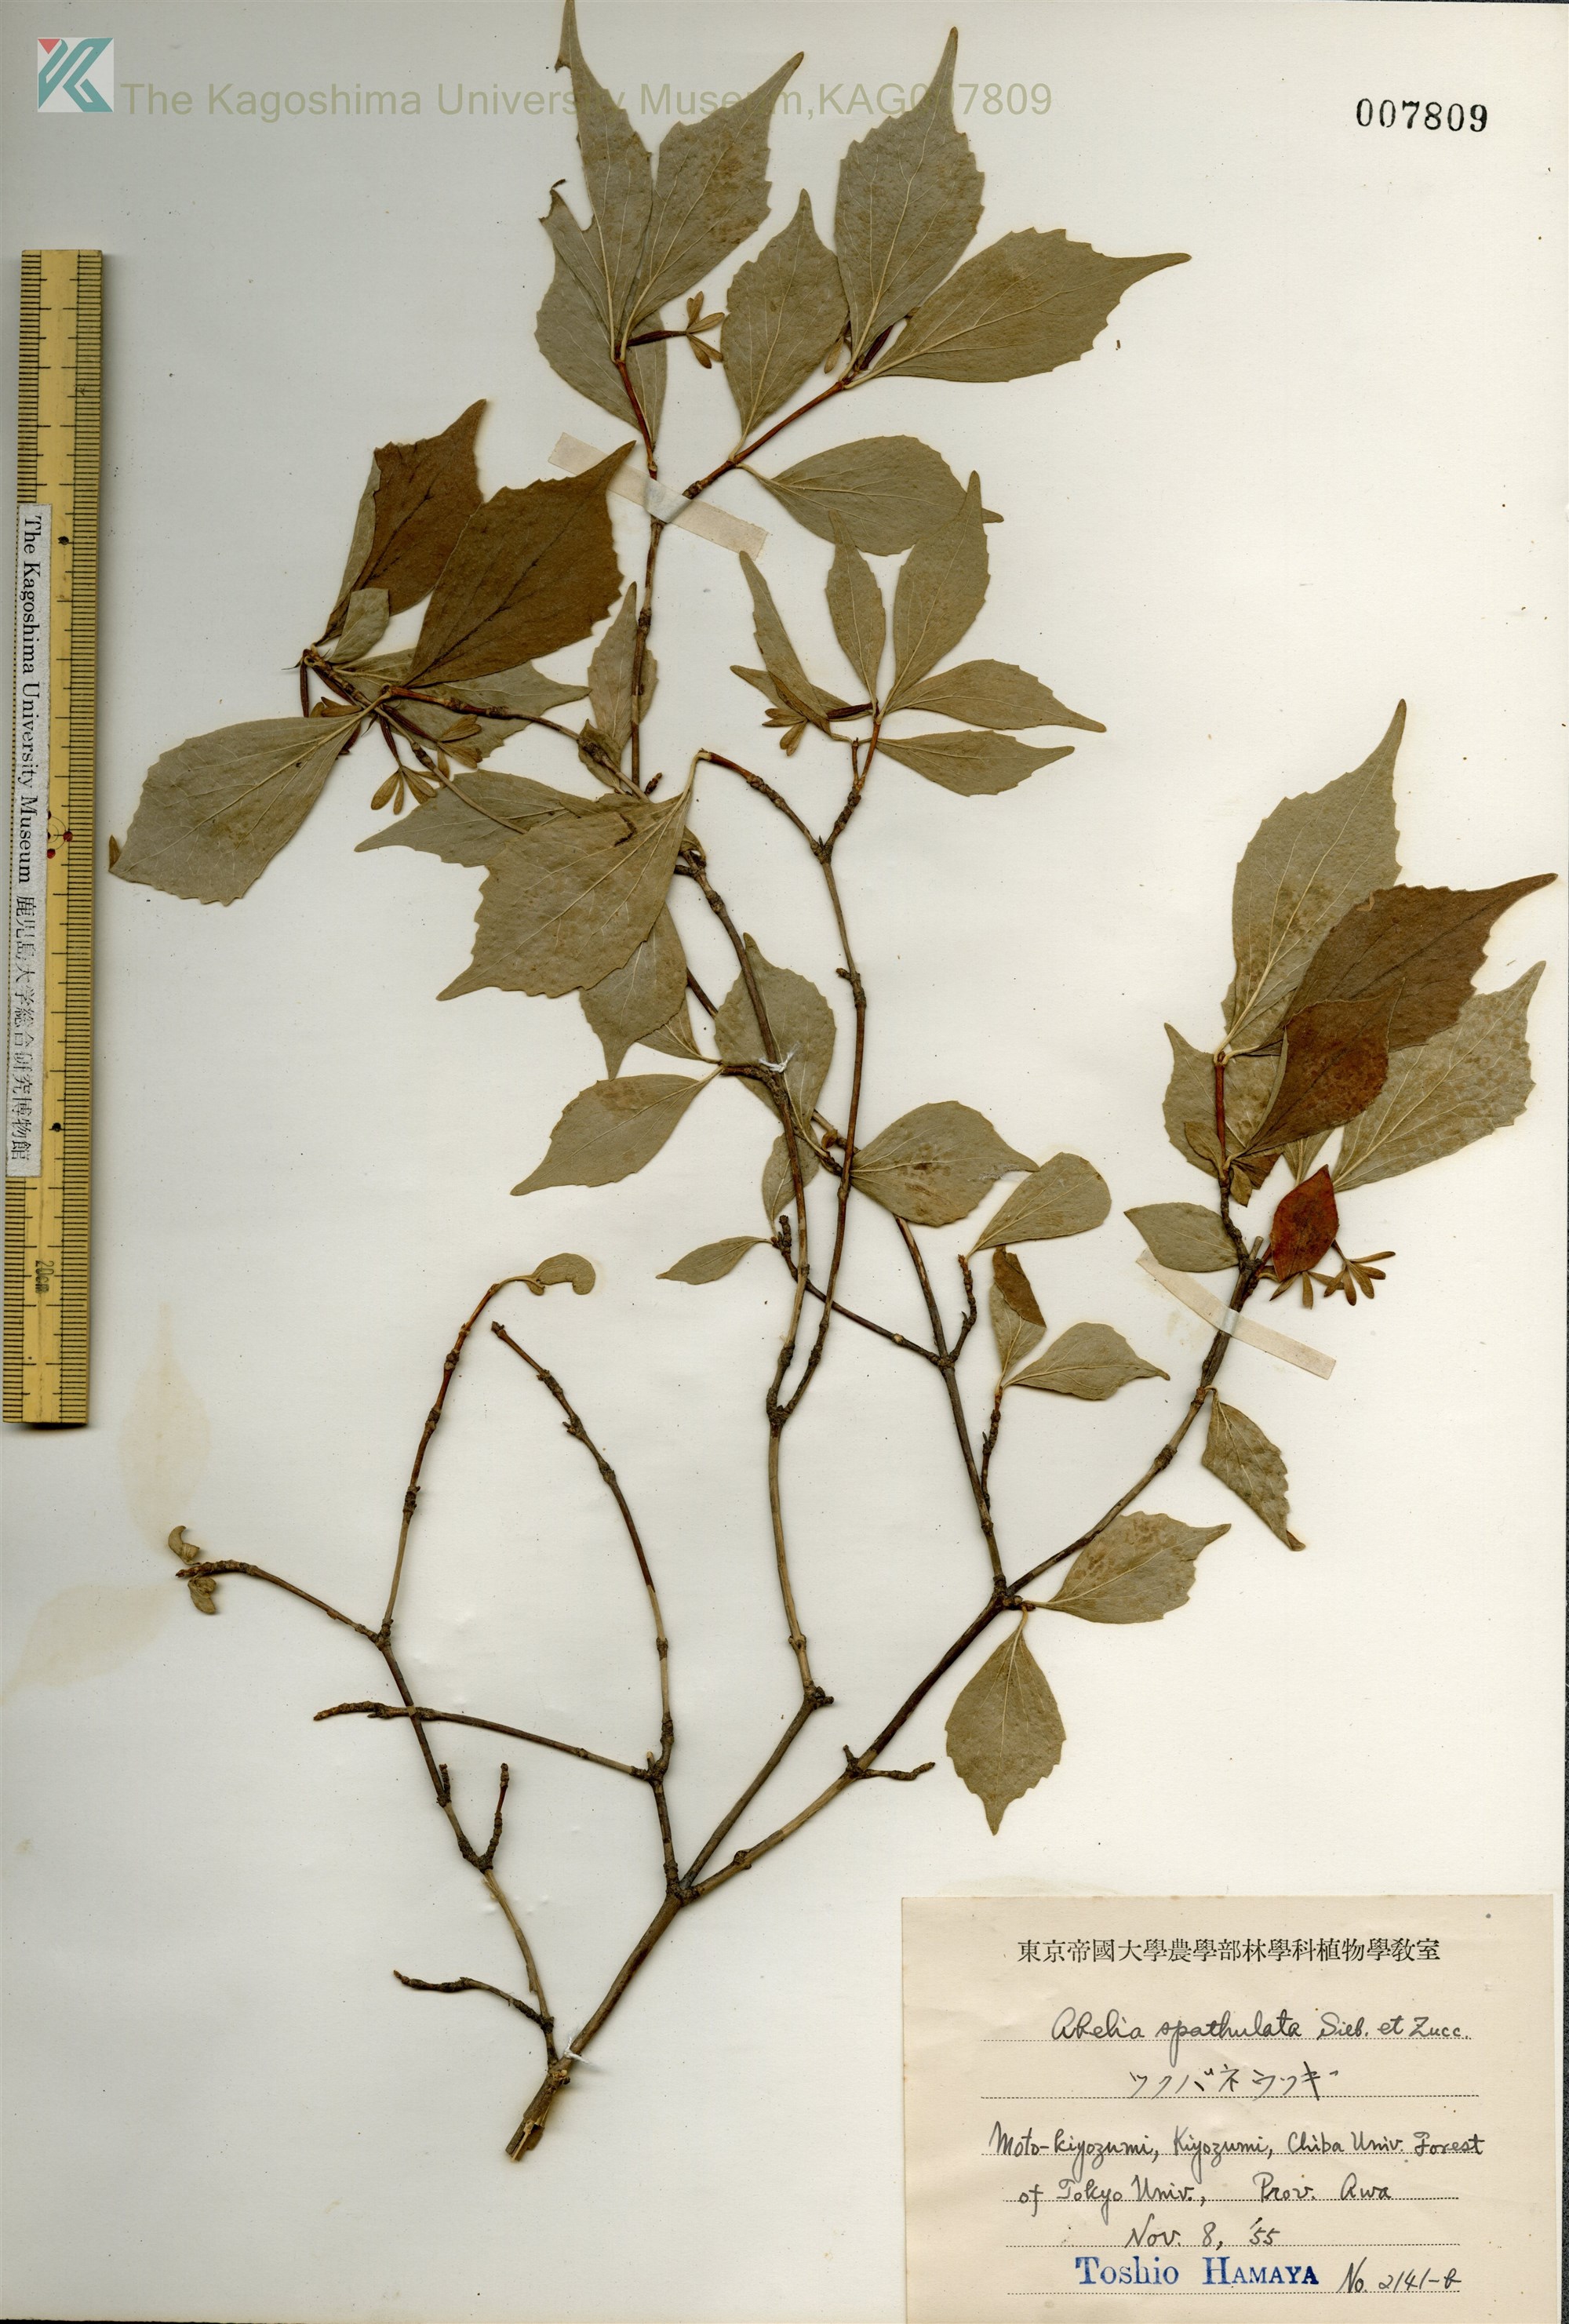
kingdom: Plantae
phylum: Tracheophyta
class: Magnoliopsida
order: Dipsacales
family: Caprifoliaceae
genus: Diabelia
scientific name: Diabelia spathulata
